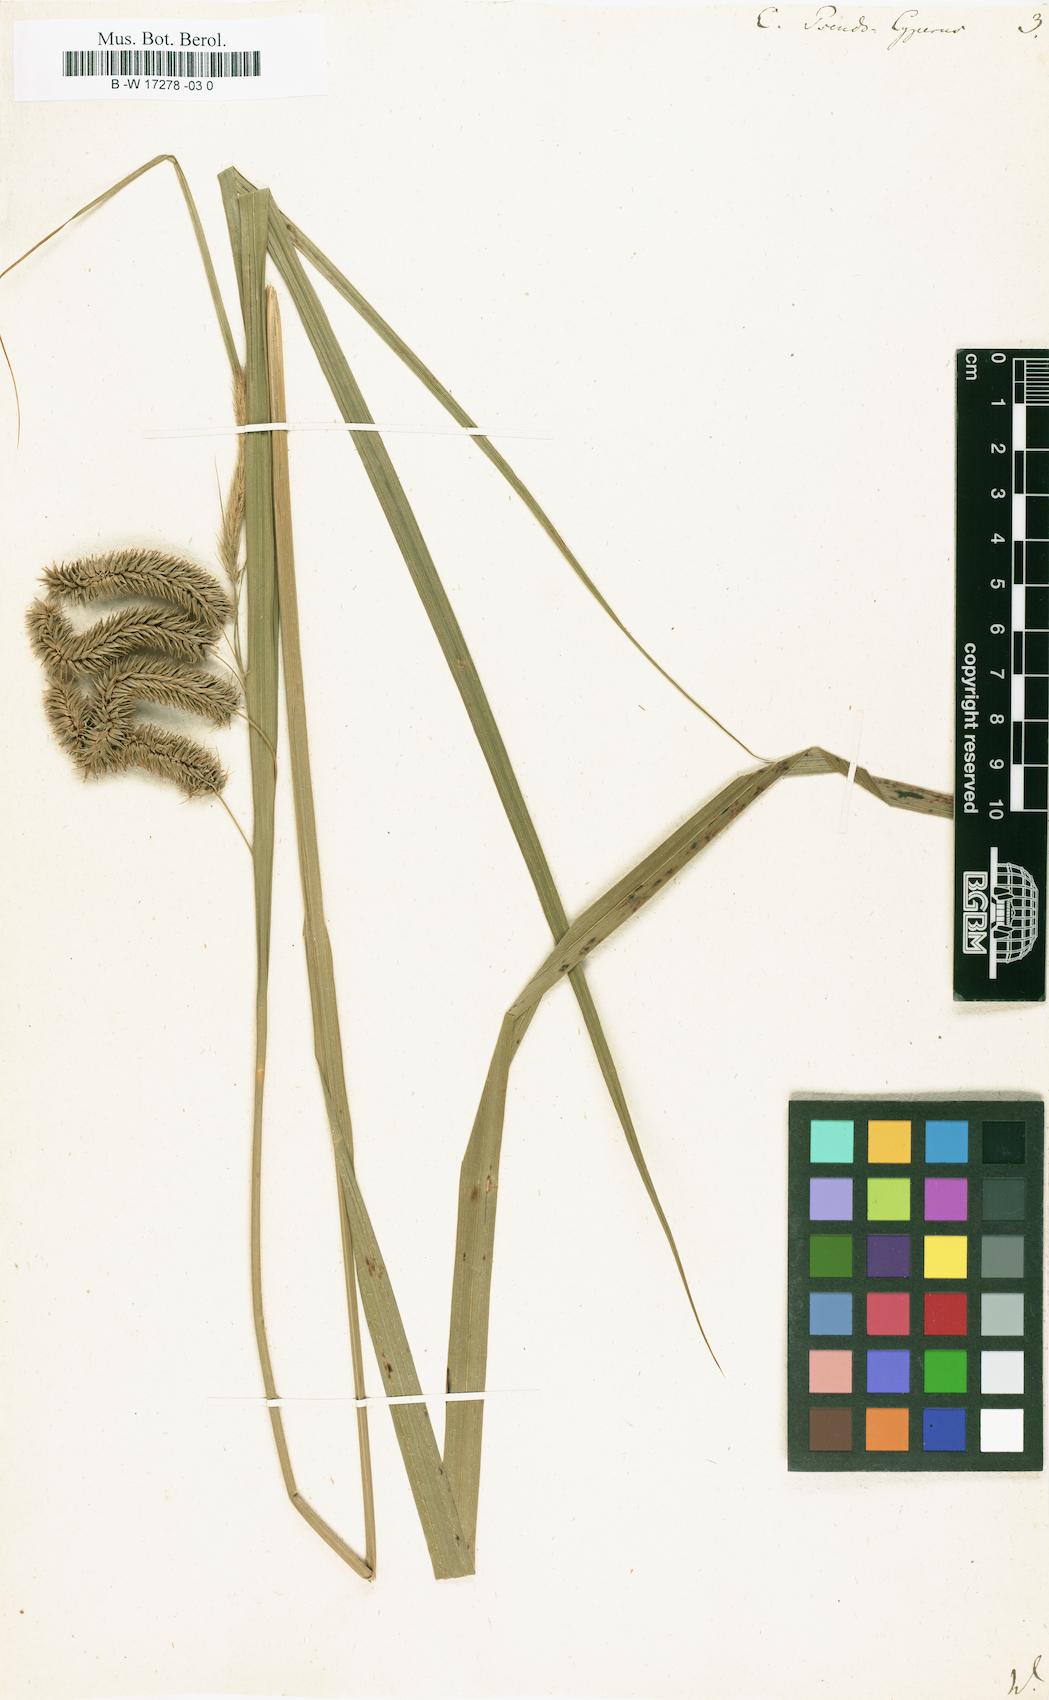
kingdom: Plantae
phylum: Tracheophyta
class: Liliopsida
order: Poales
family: Cyperaceae
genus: Carex
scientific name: Carex pseudocyperus
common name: Cyperus sedge
